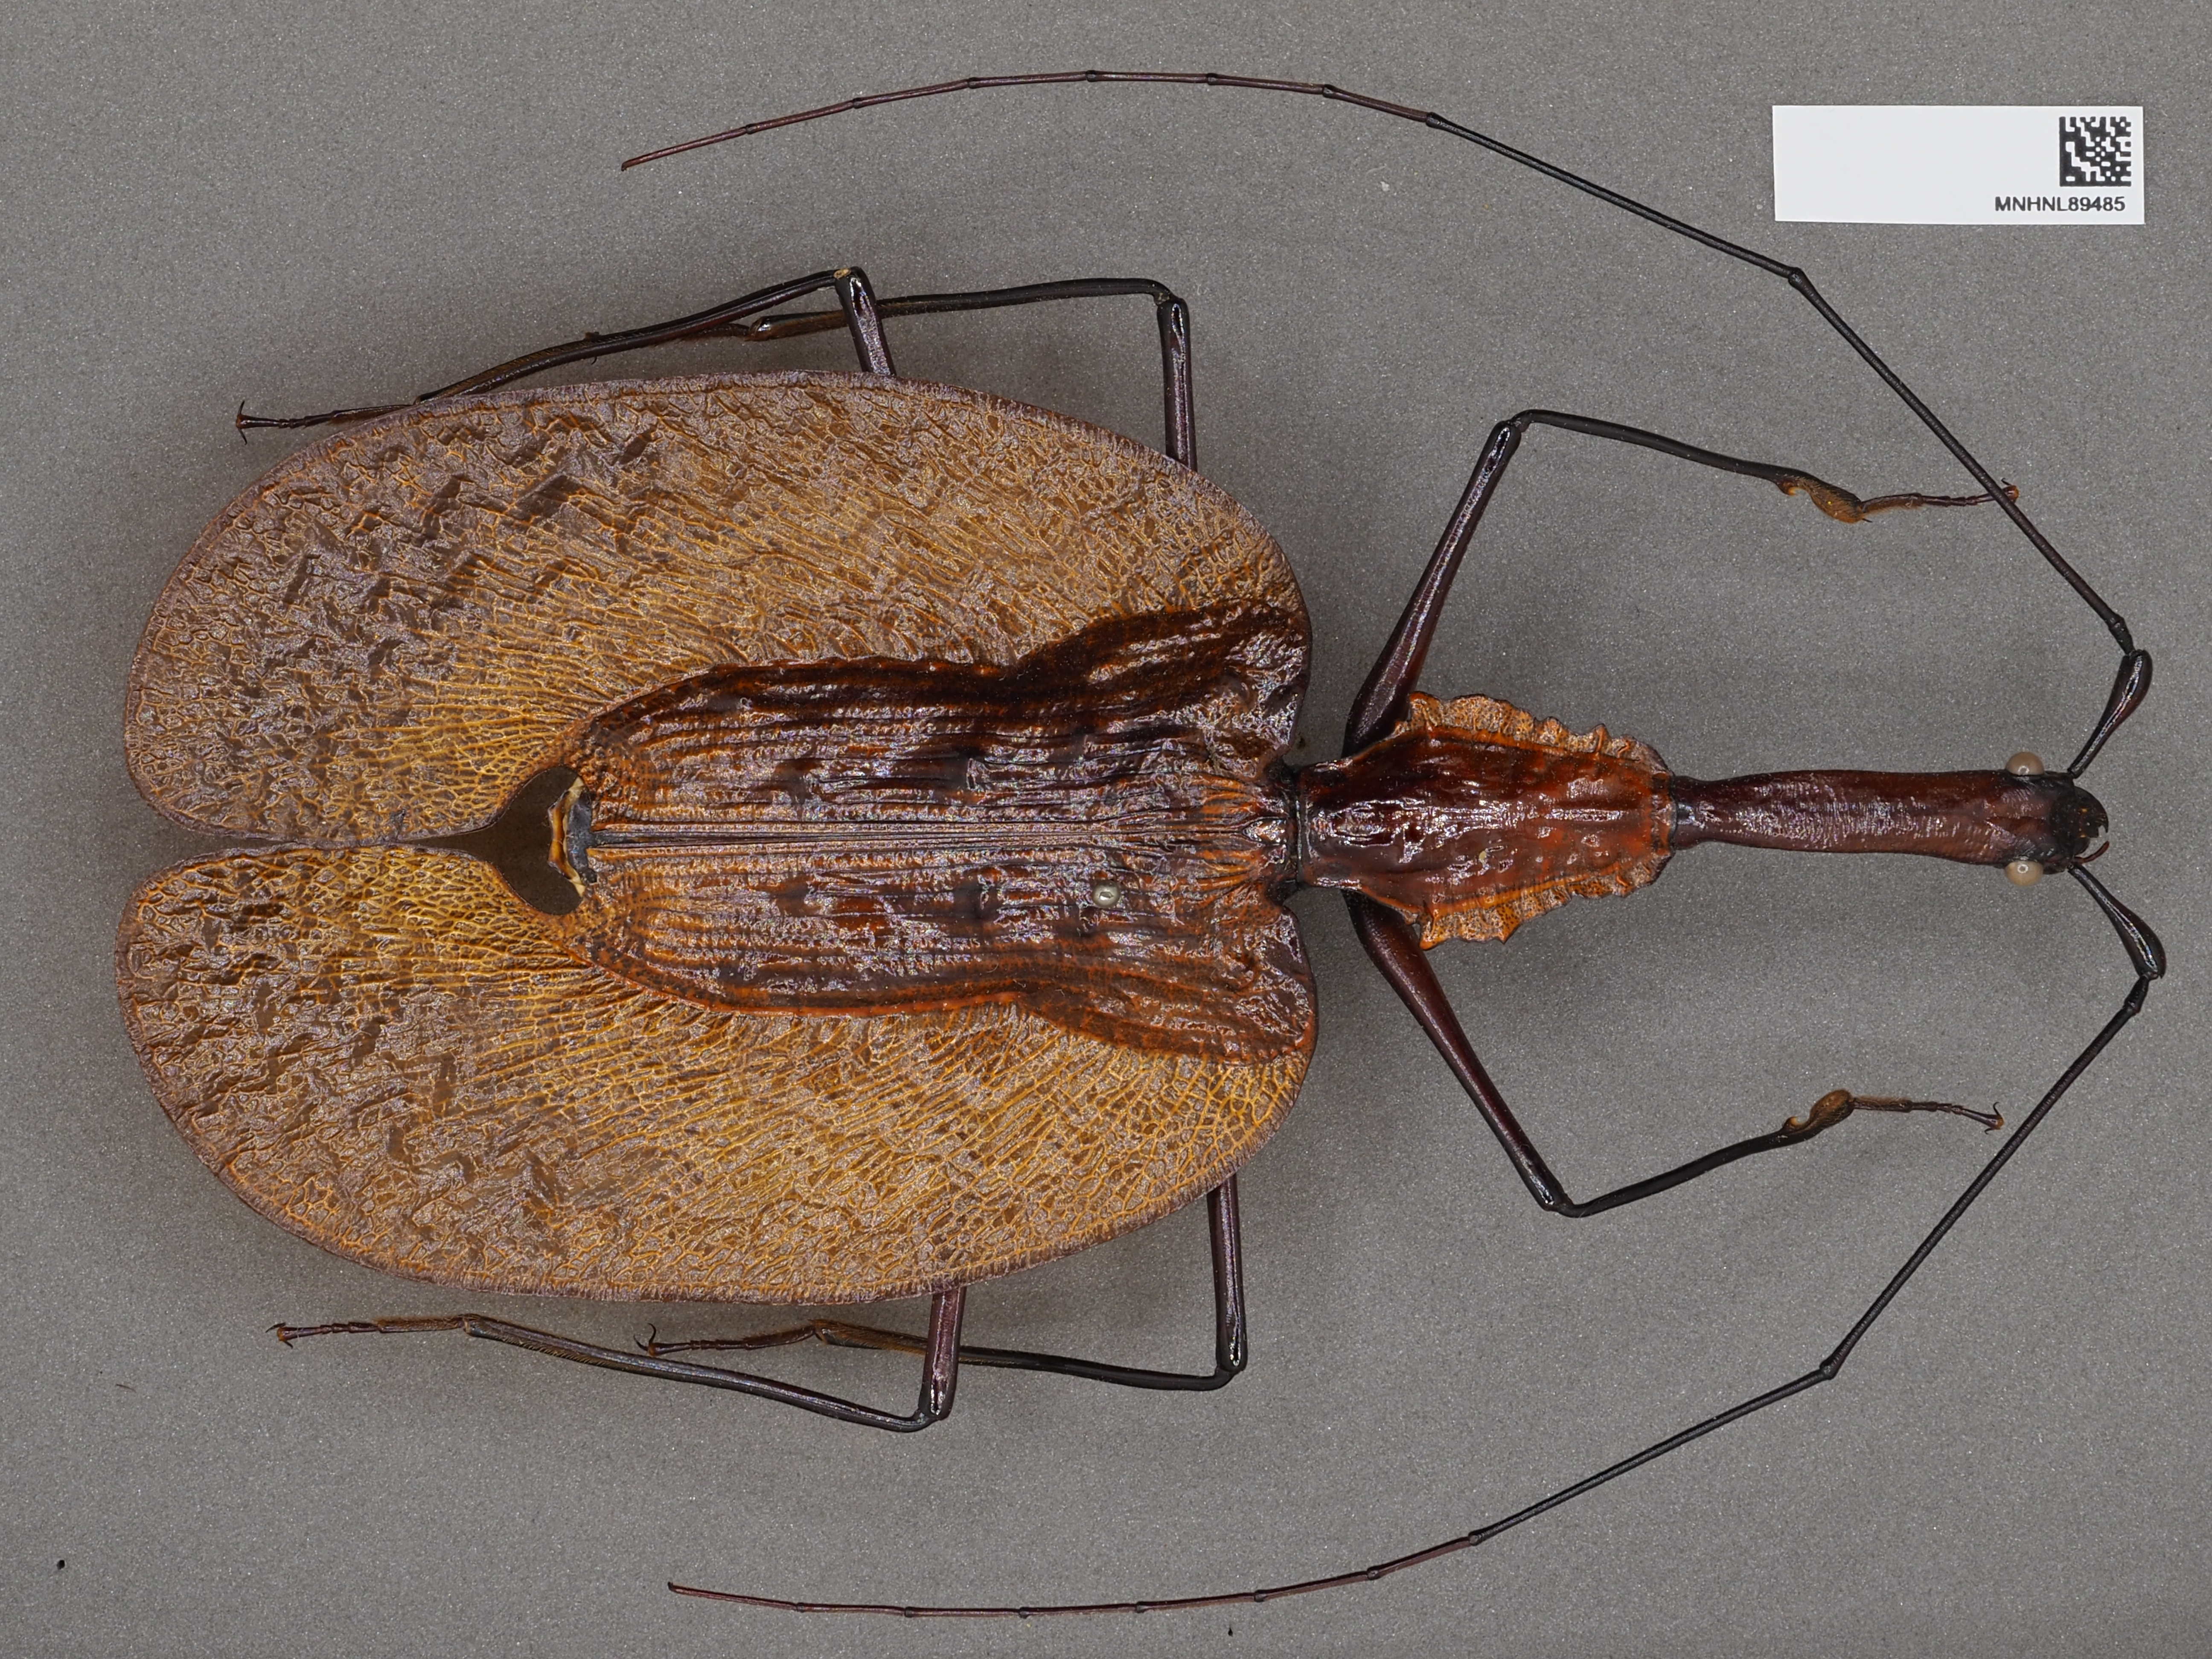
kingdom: Animalia
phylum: Arthropoda
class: Insecta
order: Coleoptera
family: Carabidae
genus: Mormolyce
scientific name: Mormolyce
